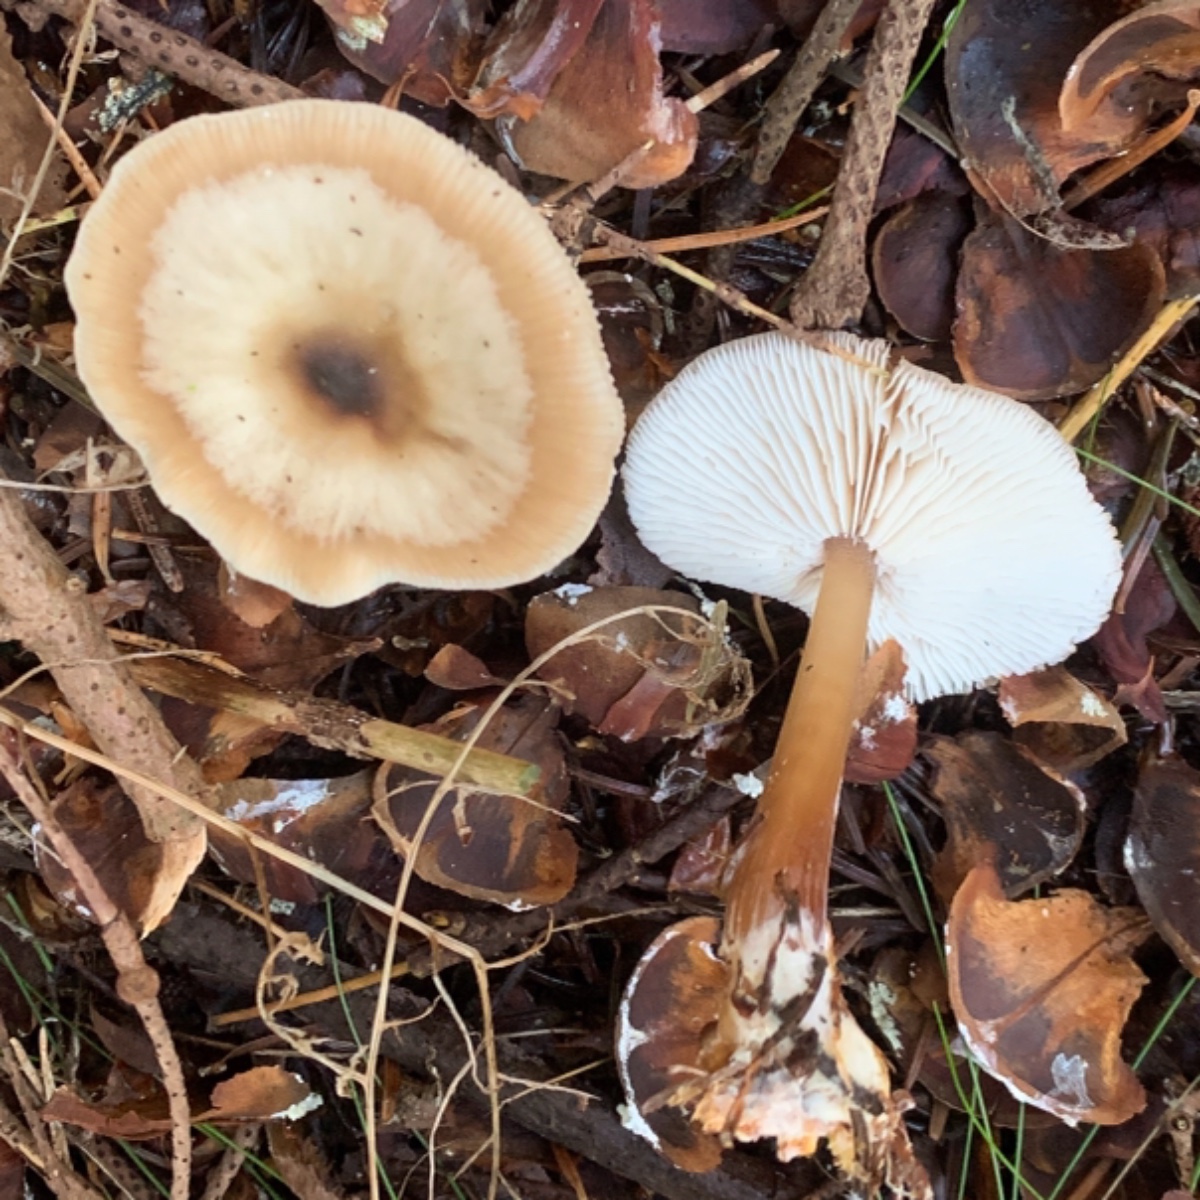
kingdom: Fungi
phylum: Basidiomycota
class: Agaricomycetes
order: Agaricales
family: Omphalotaceae
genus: Rhodocollybia
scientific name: Rhodocollybia asema
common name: horngrå fladhat
